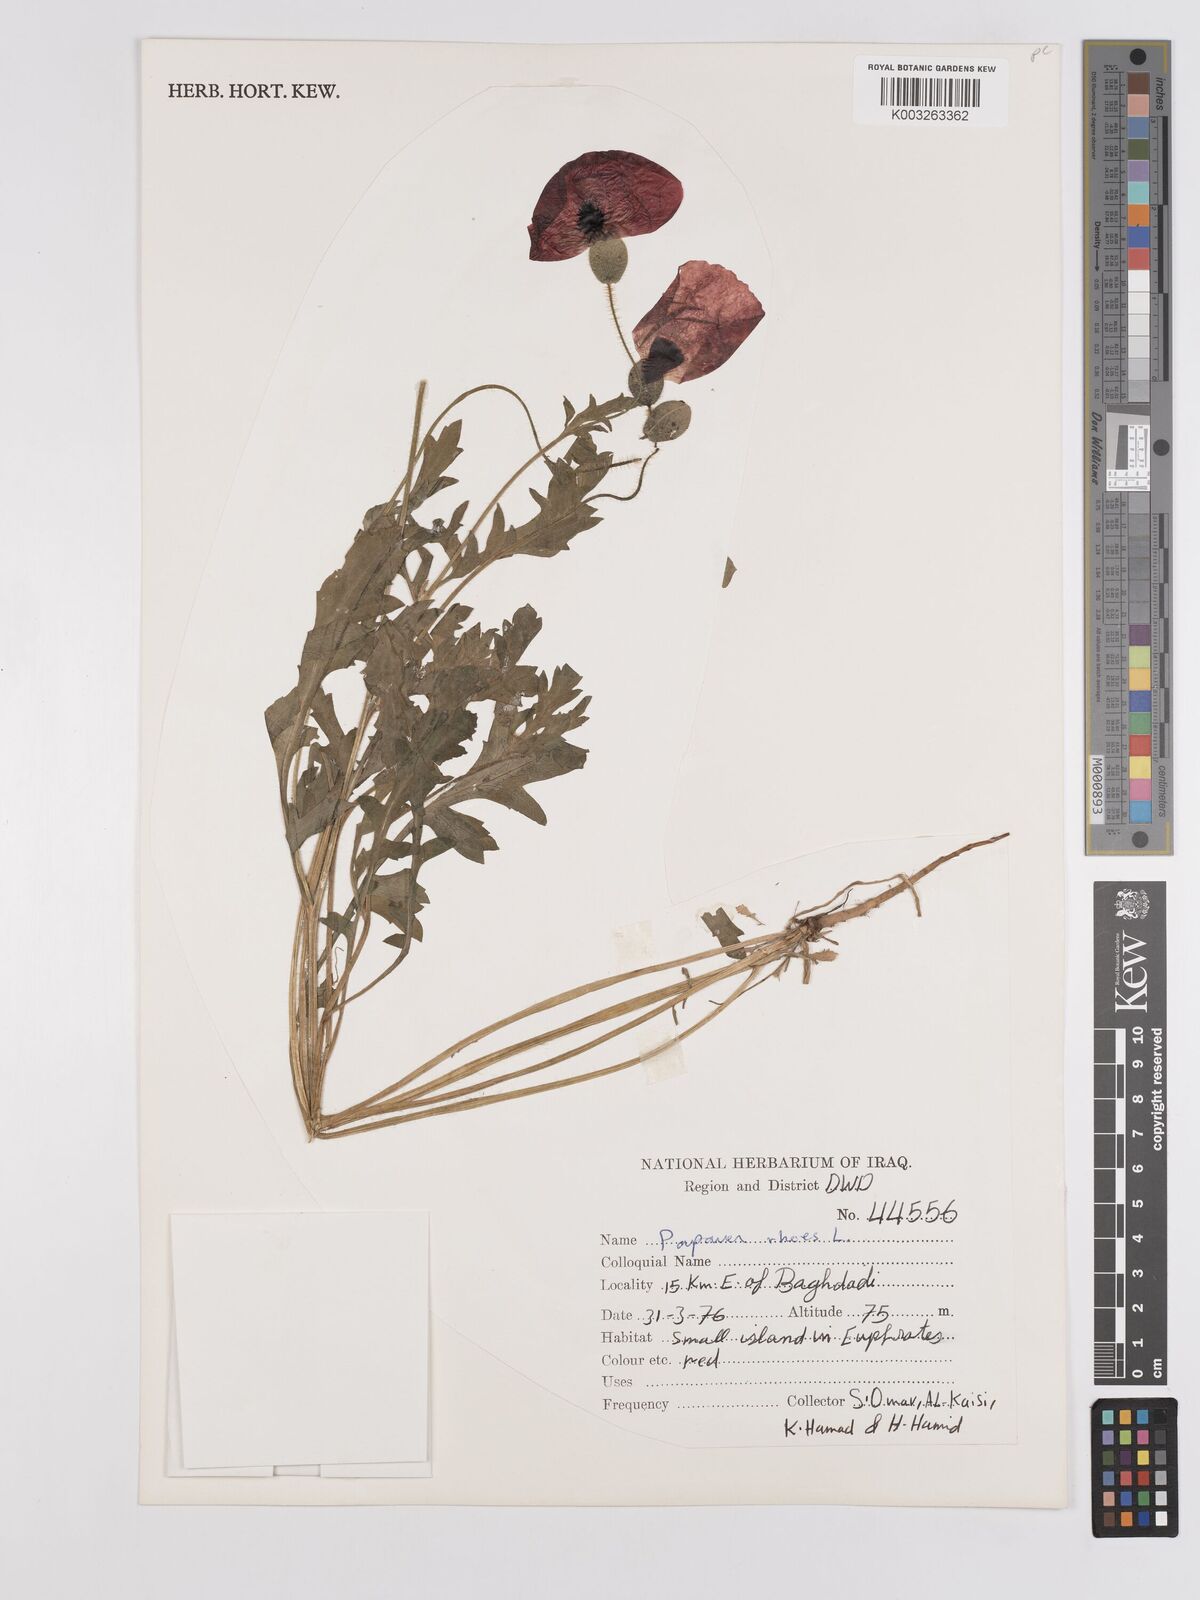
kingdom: Plantae
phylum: Tracheophyta
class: Magnoliopsida
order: Ranunculales
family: Papaveraceae
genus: Papaver
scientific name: Papaver rhoeas
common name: Corn poppy
